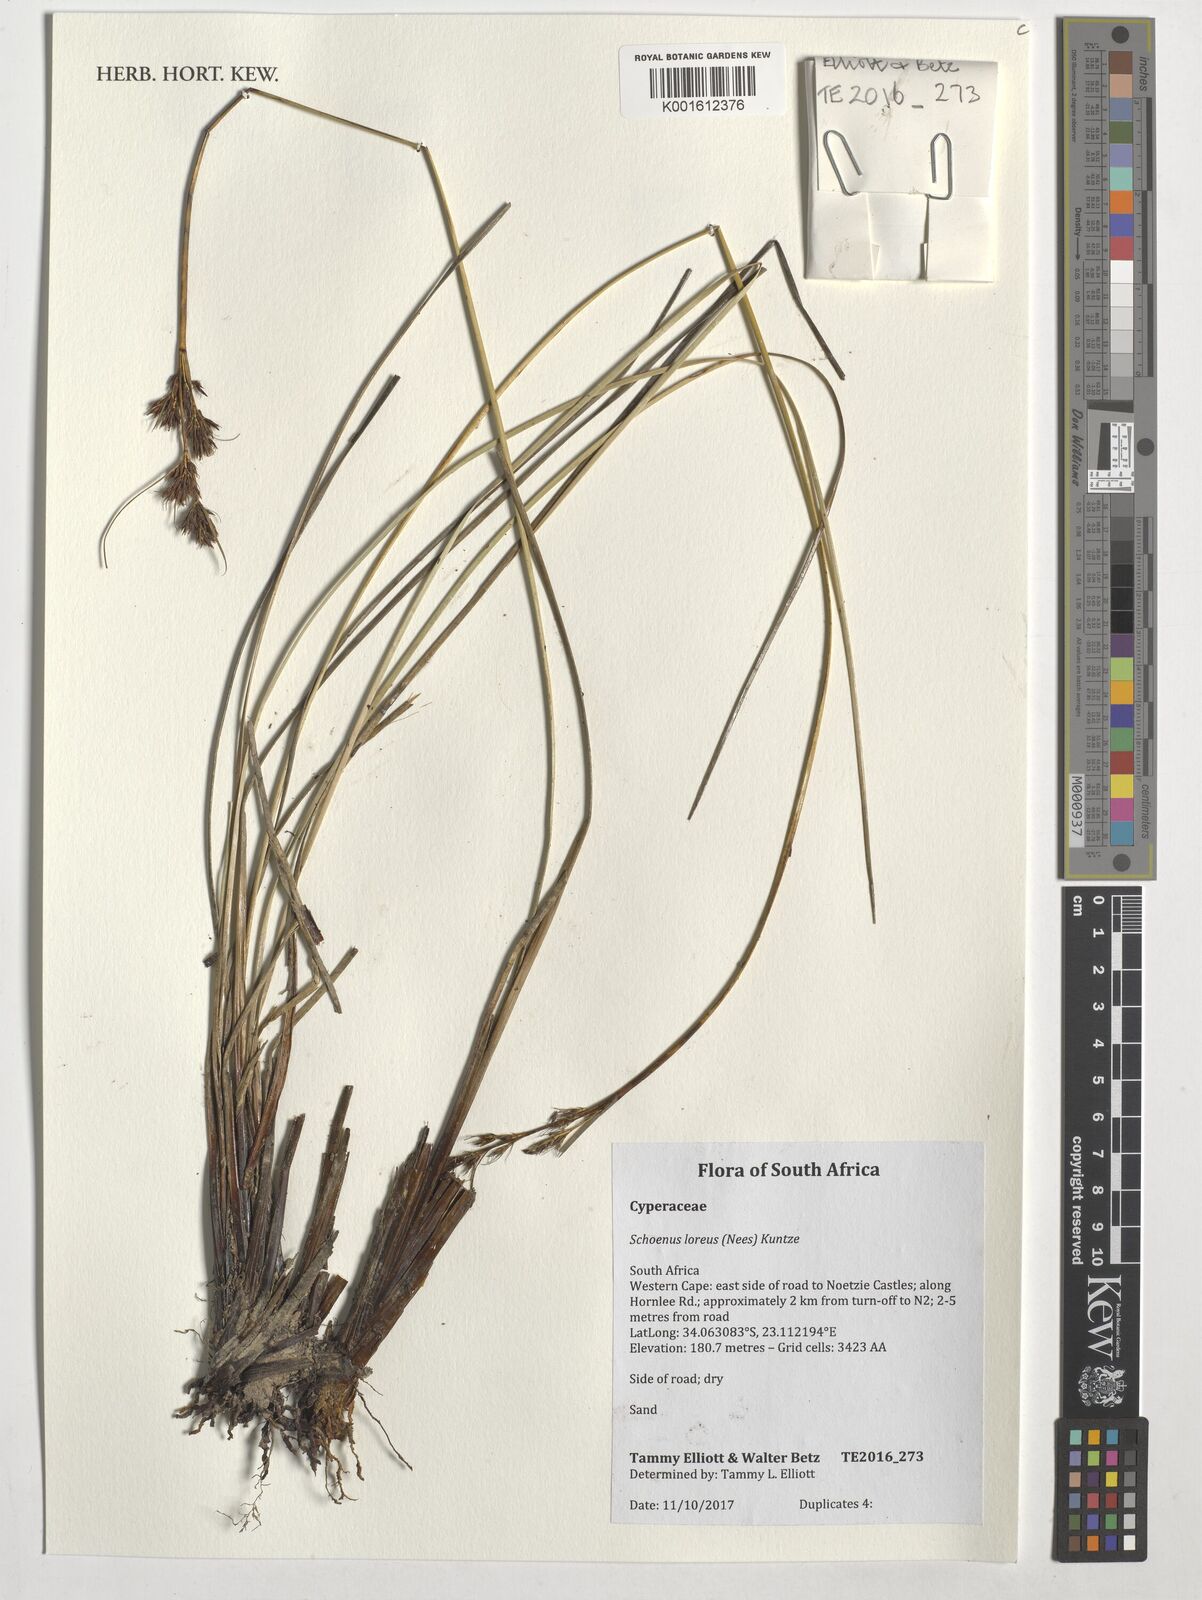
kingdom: Plantae
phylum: Tracheophyta
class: Liliopsida
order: Poales
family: Cyperaceae
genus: Schoenus
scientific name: Schoenus loreus
